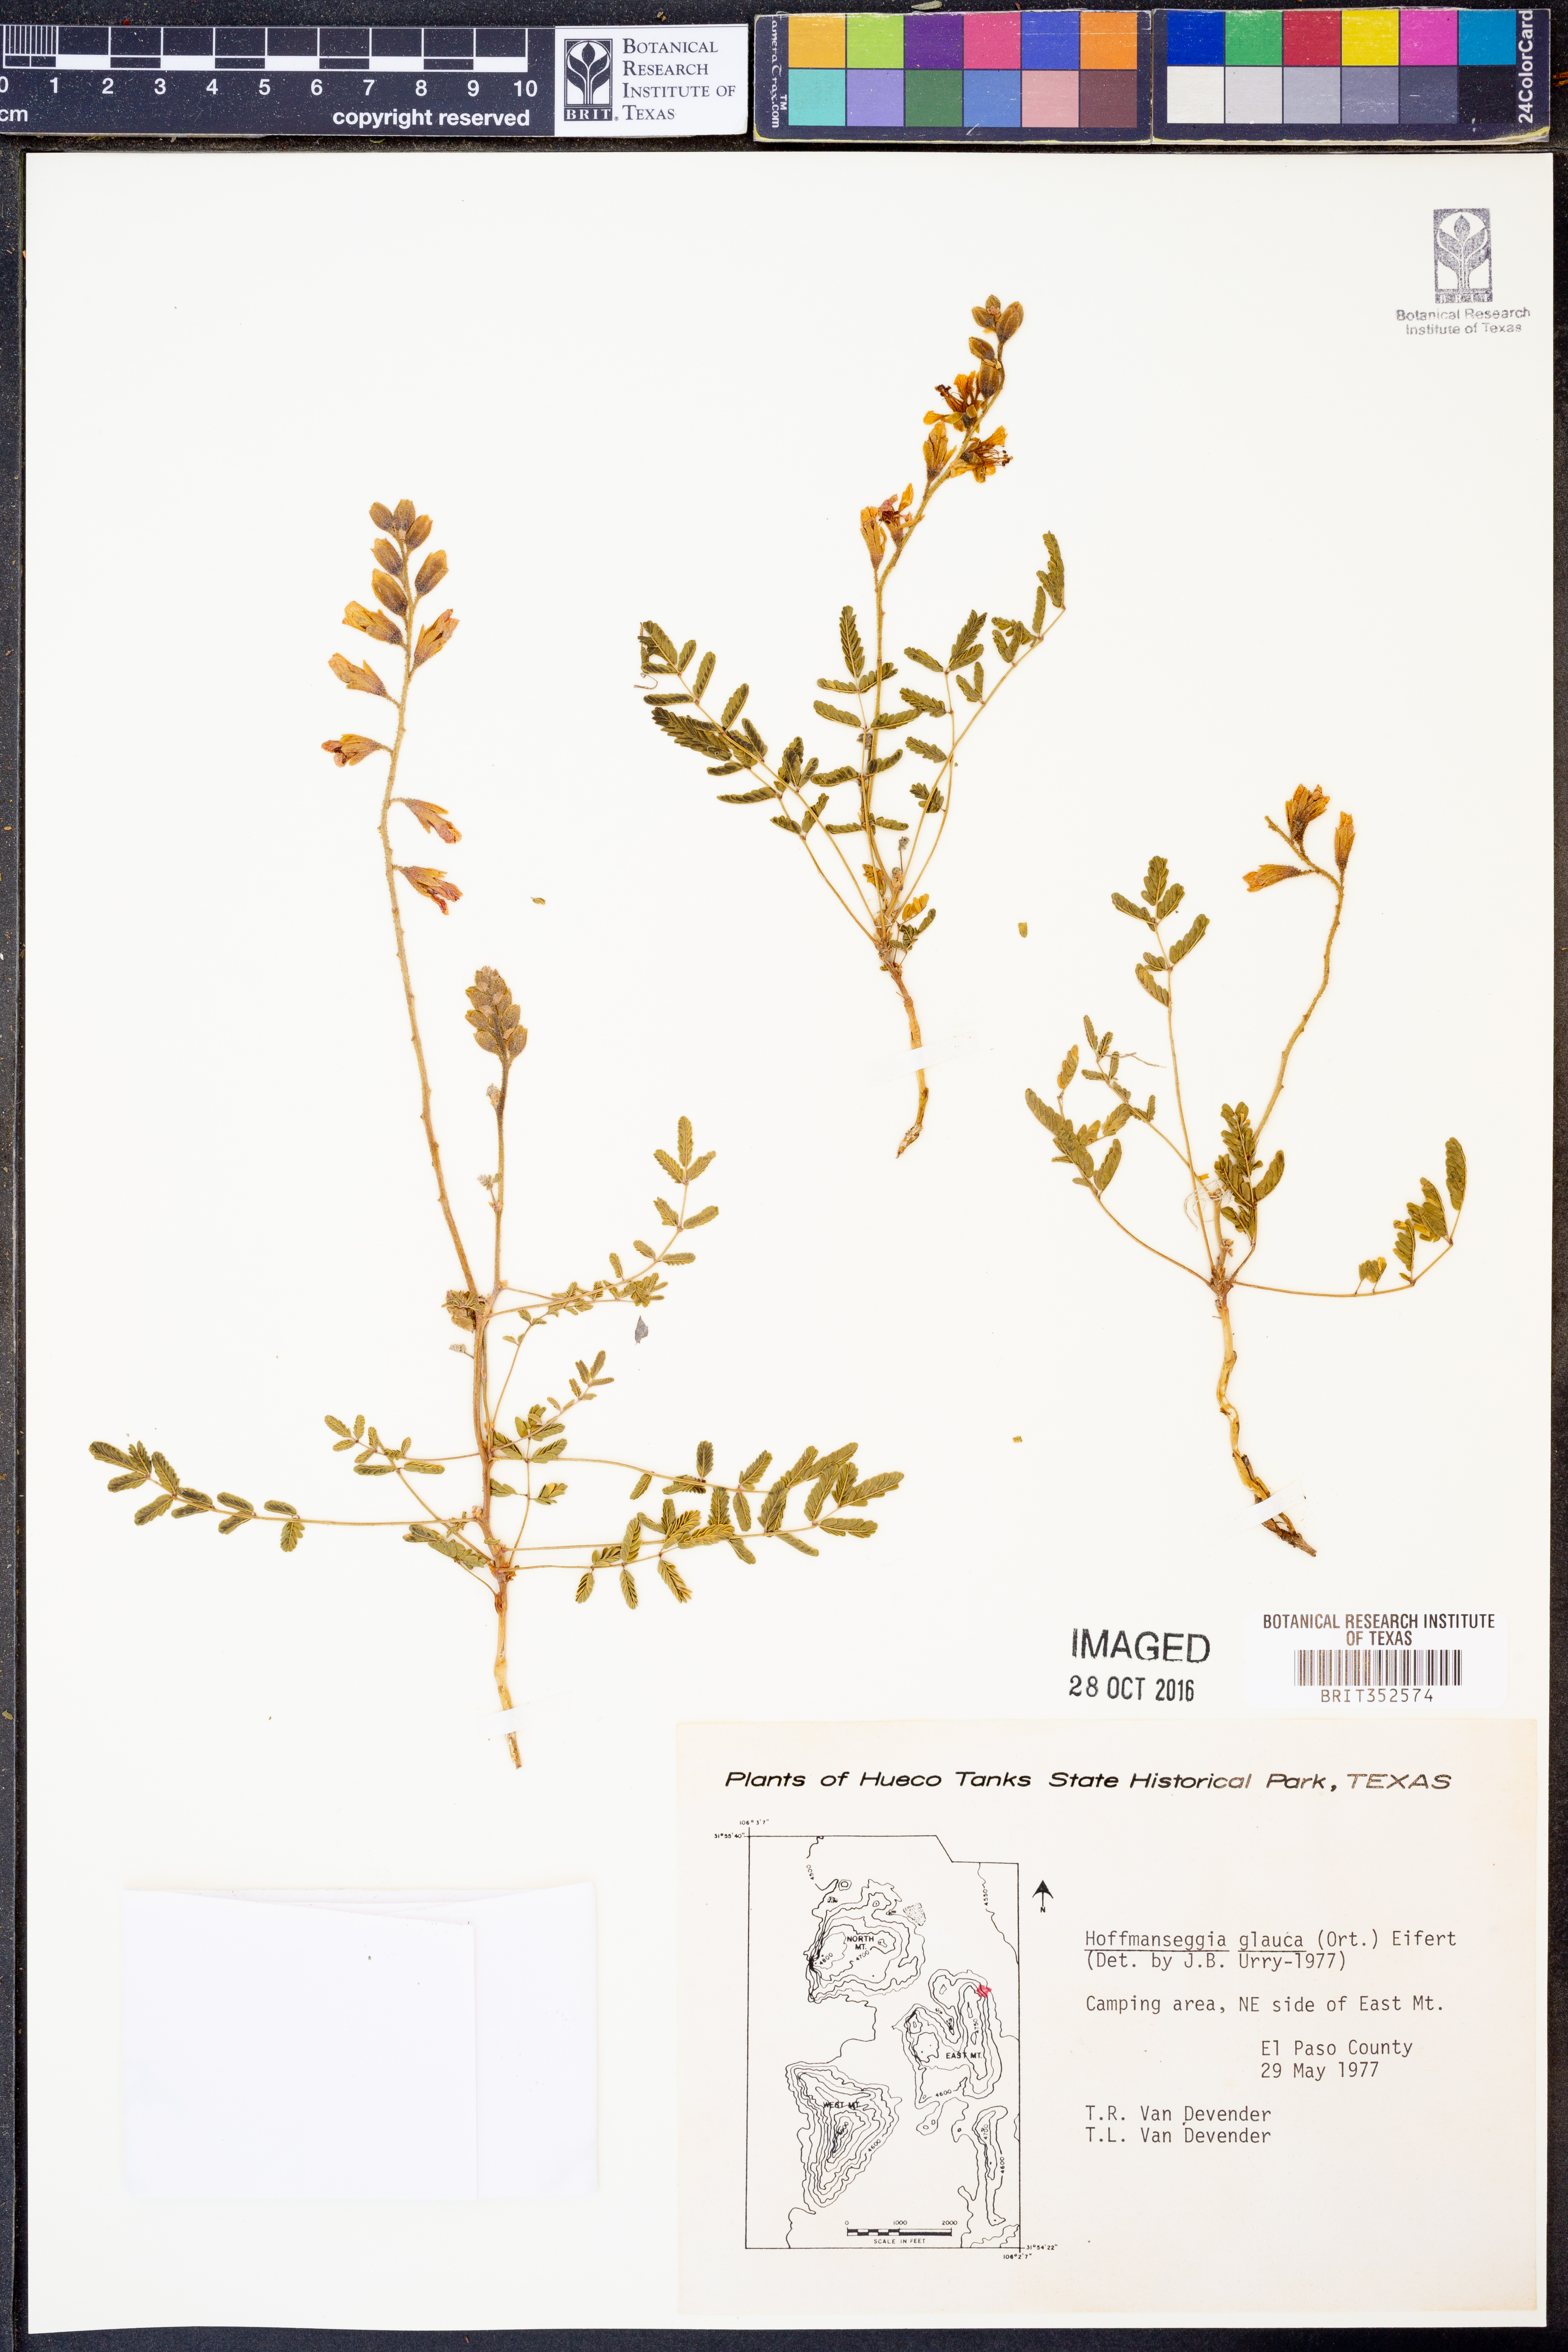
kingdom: Plantae
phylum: Tracheophyta
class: Magnoliopsida
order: Fabales
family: Fabaceae
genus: Hoffmannseggia
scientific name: Hoffmannseggia glauca
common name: Pignut
